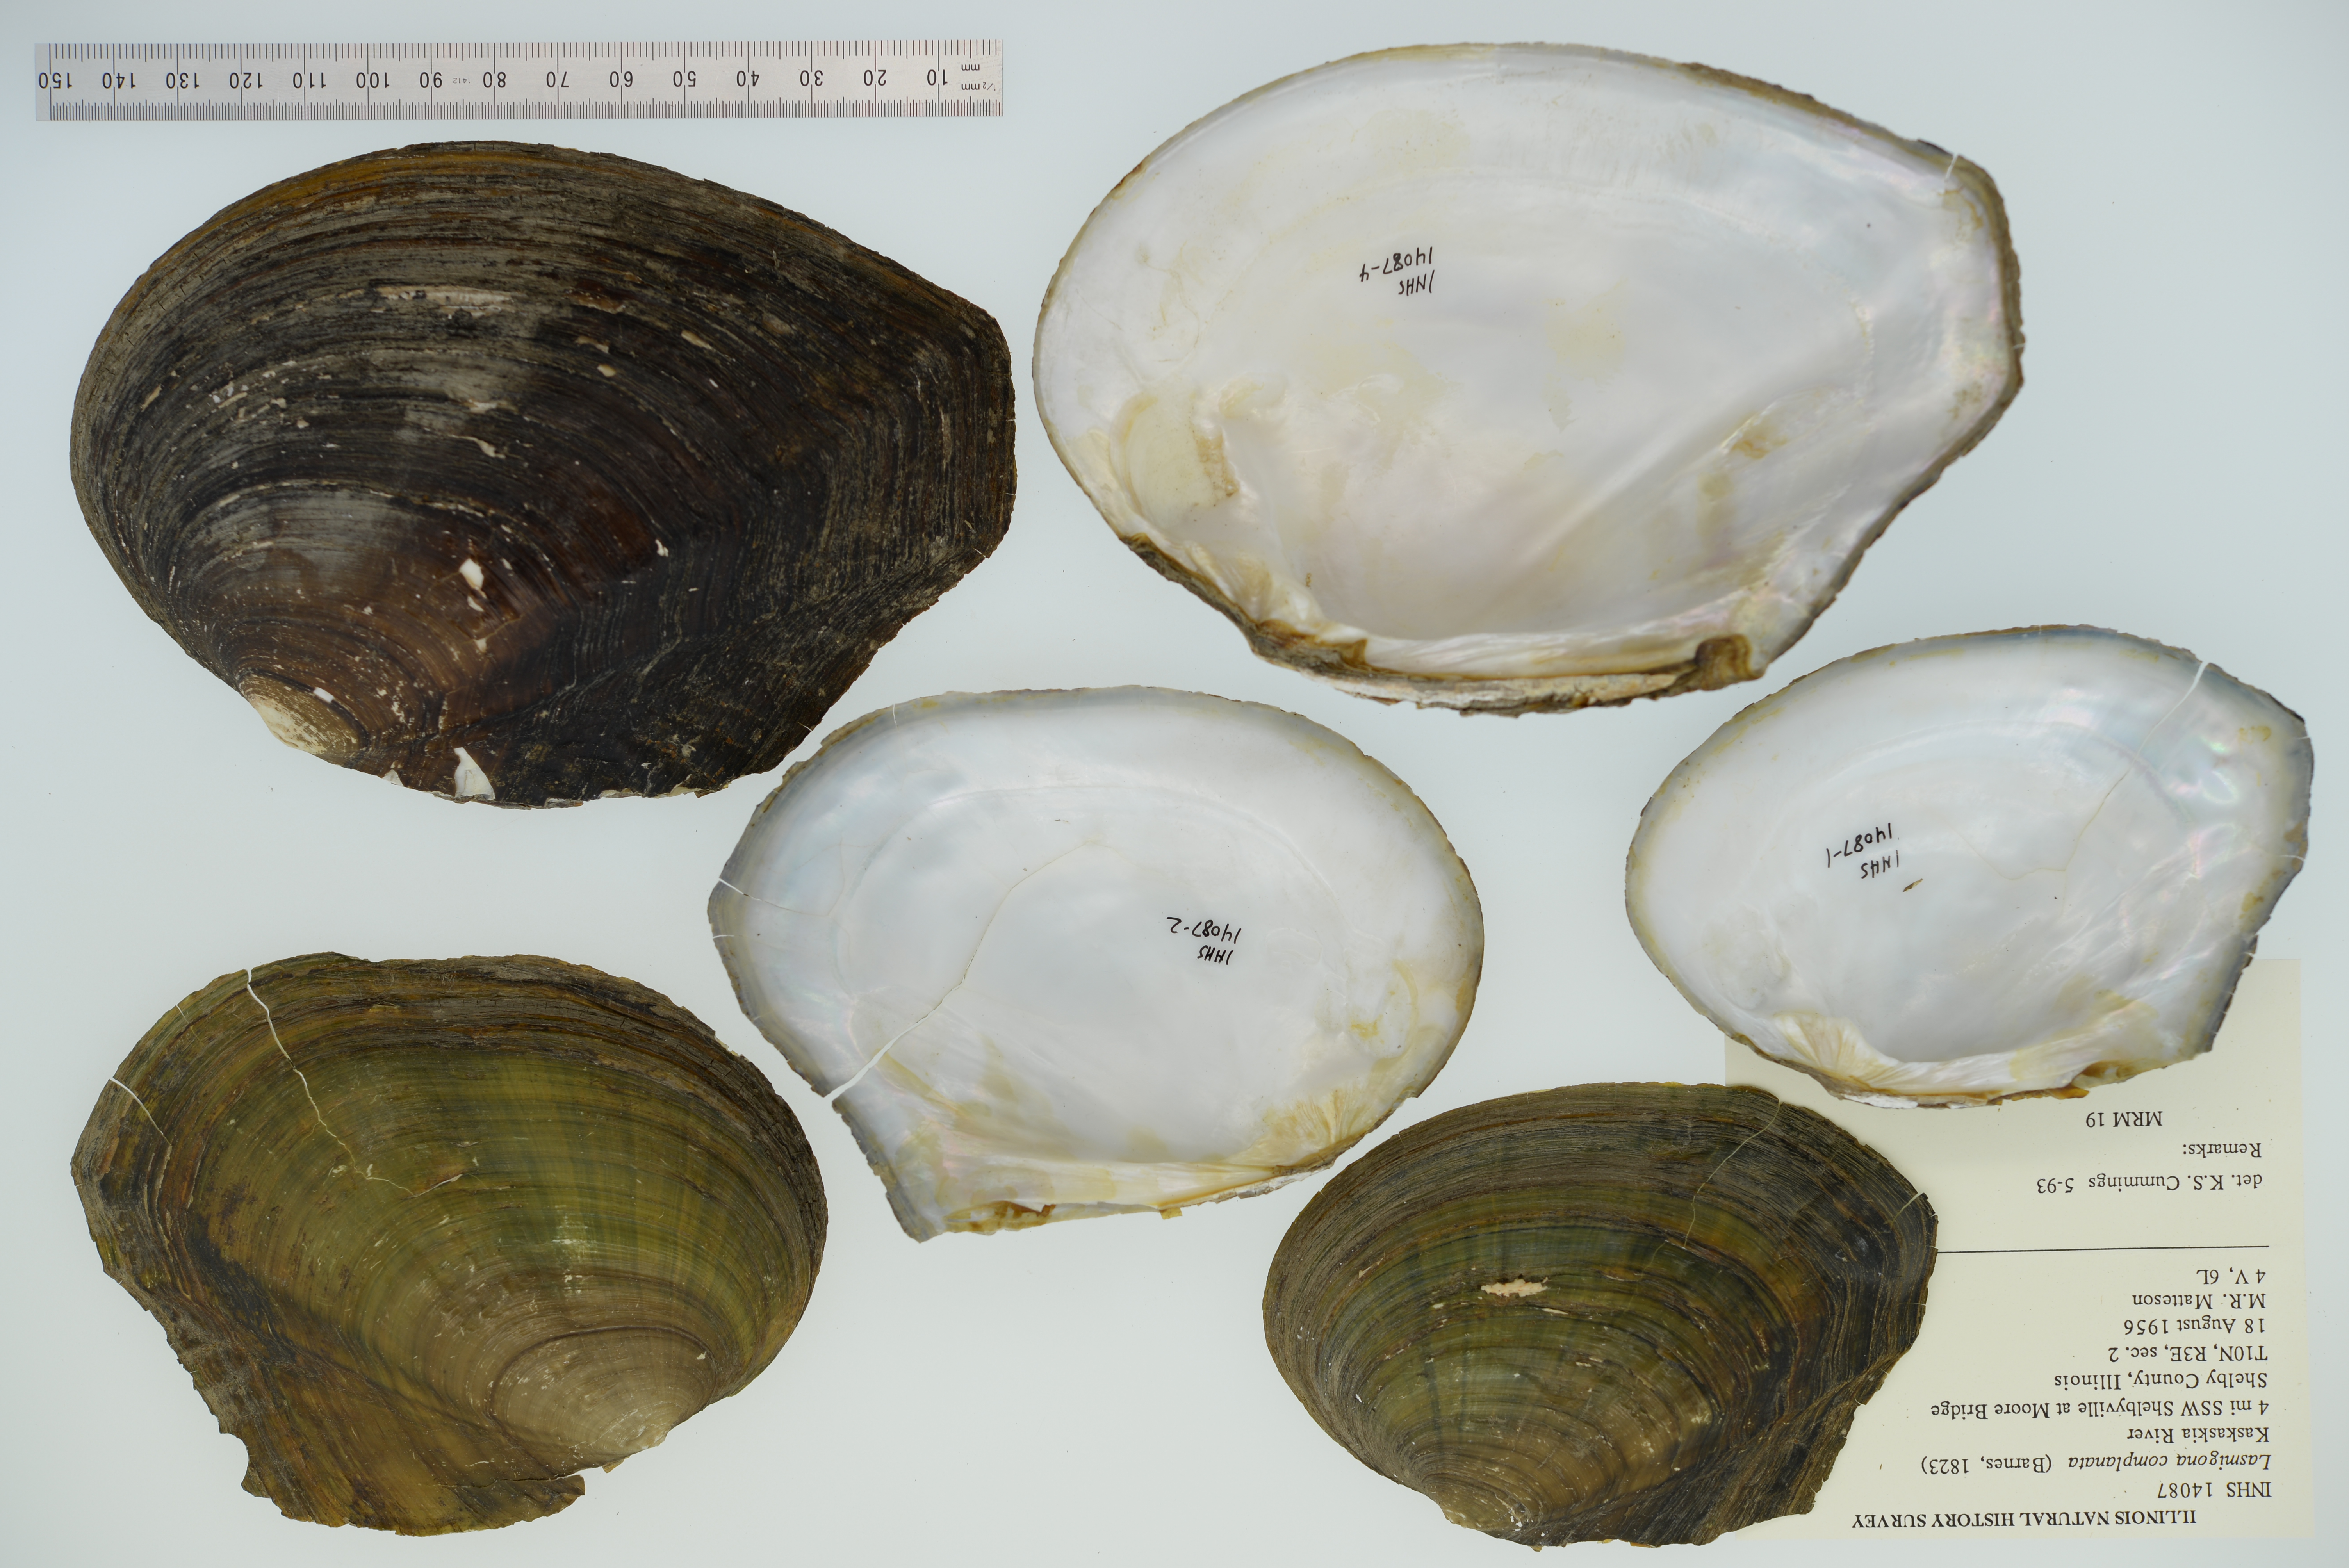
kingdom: Animalia
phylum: Mollusca
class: Bivalvia
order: Unionida
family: Unionidae
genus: Lasmigona
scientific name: Lasmigona complanata
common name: White heelsplitter
